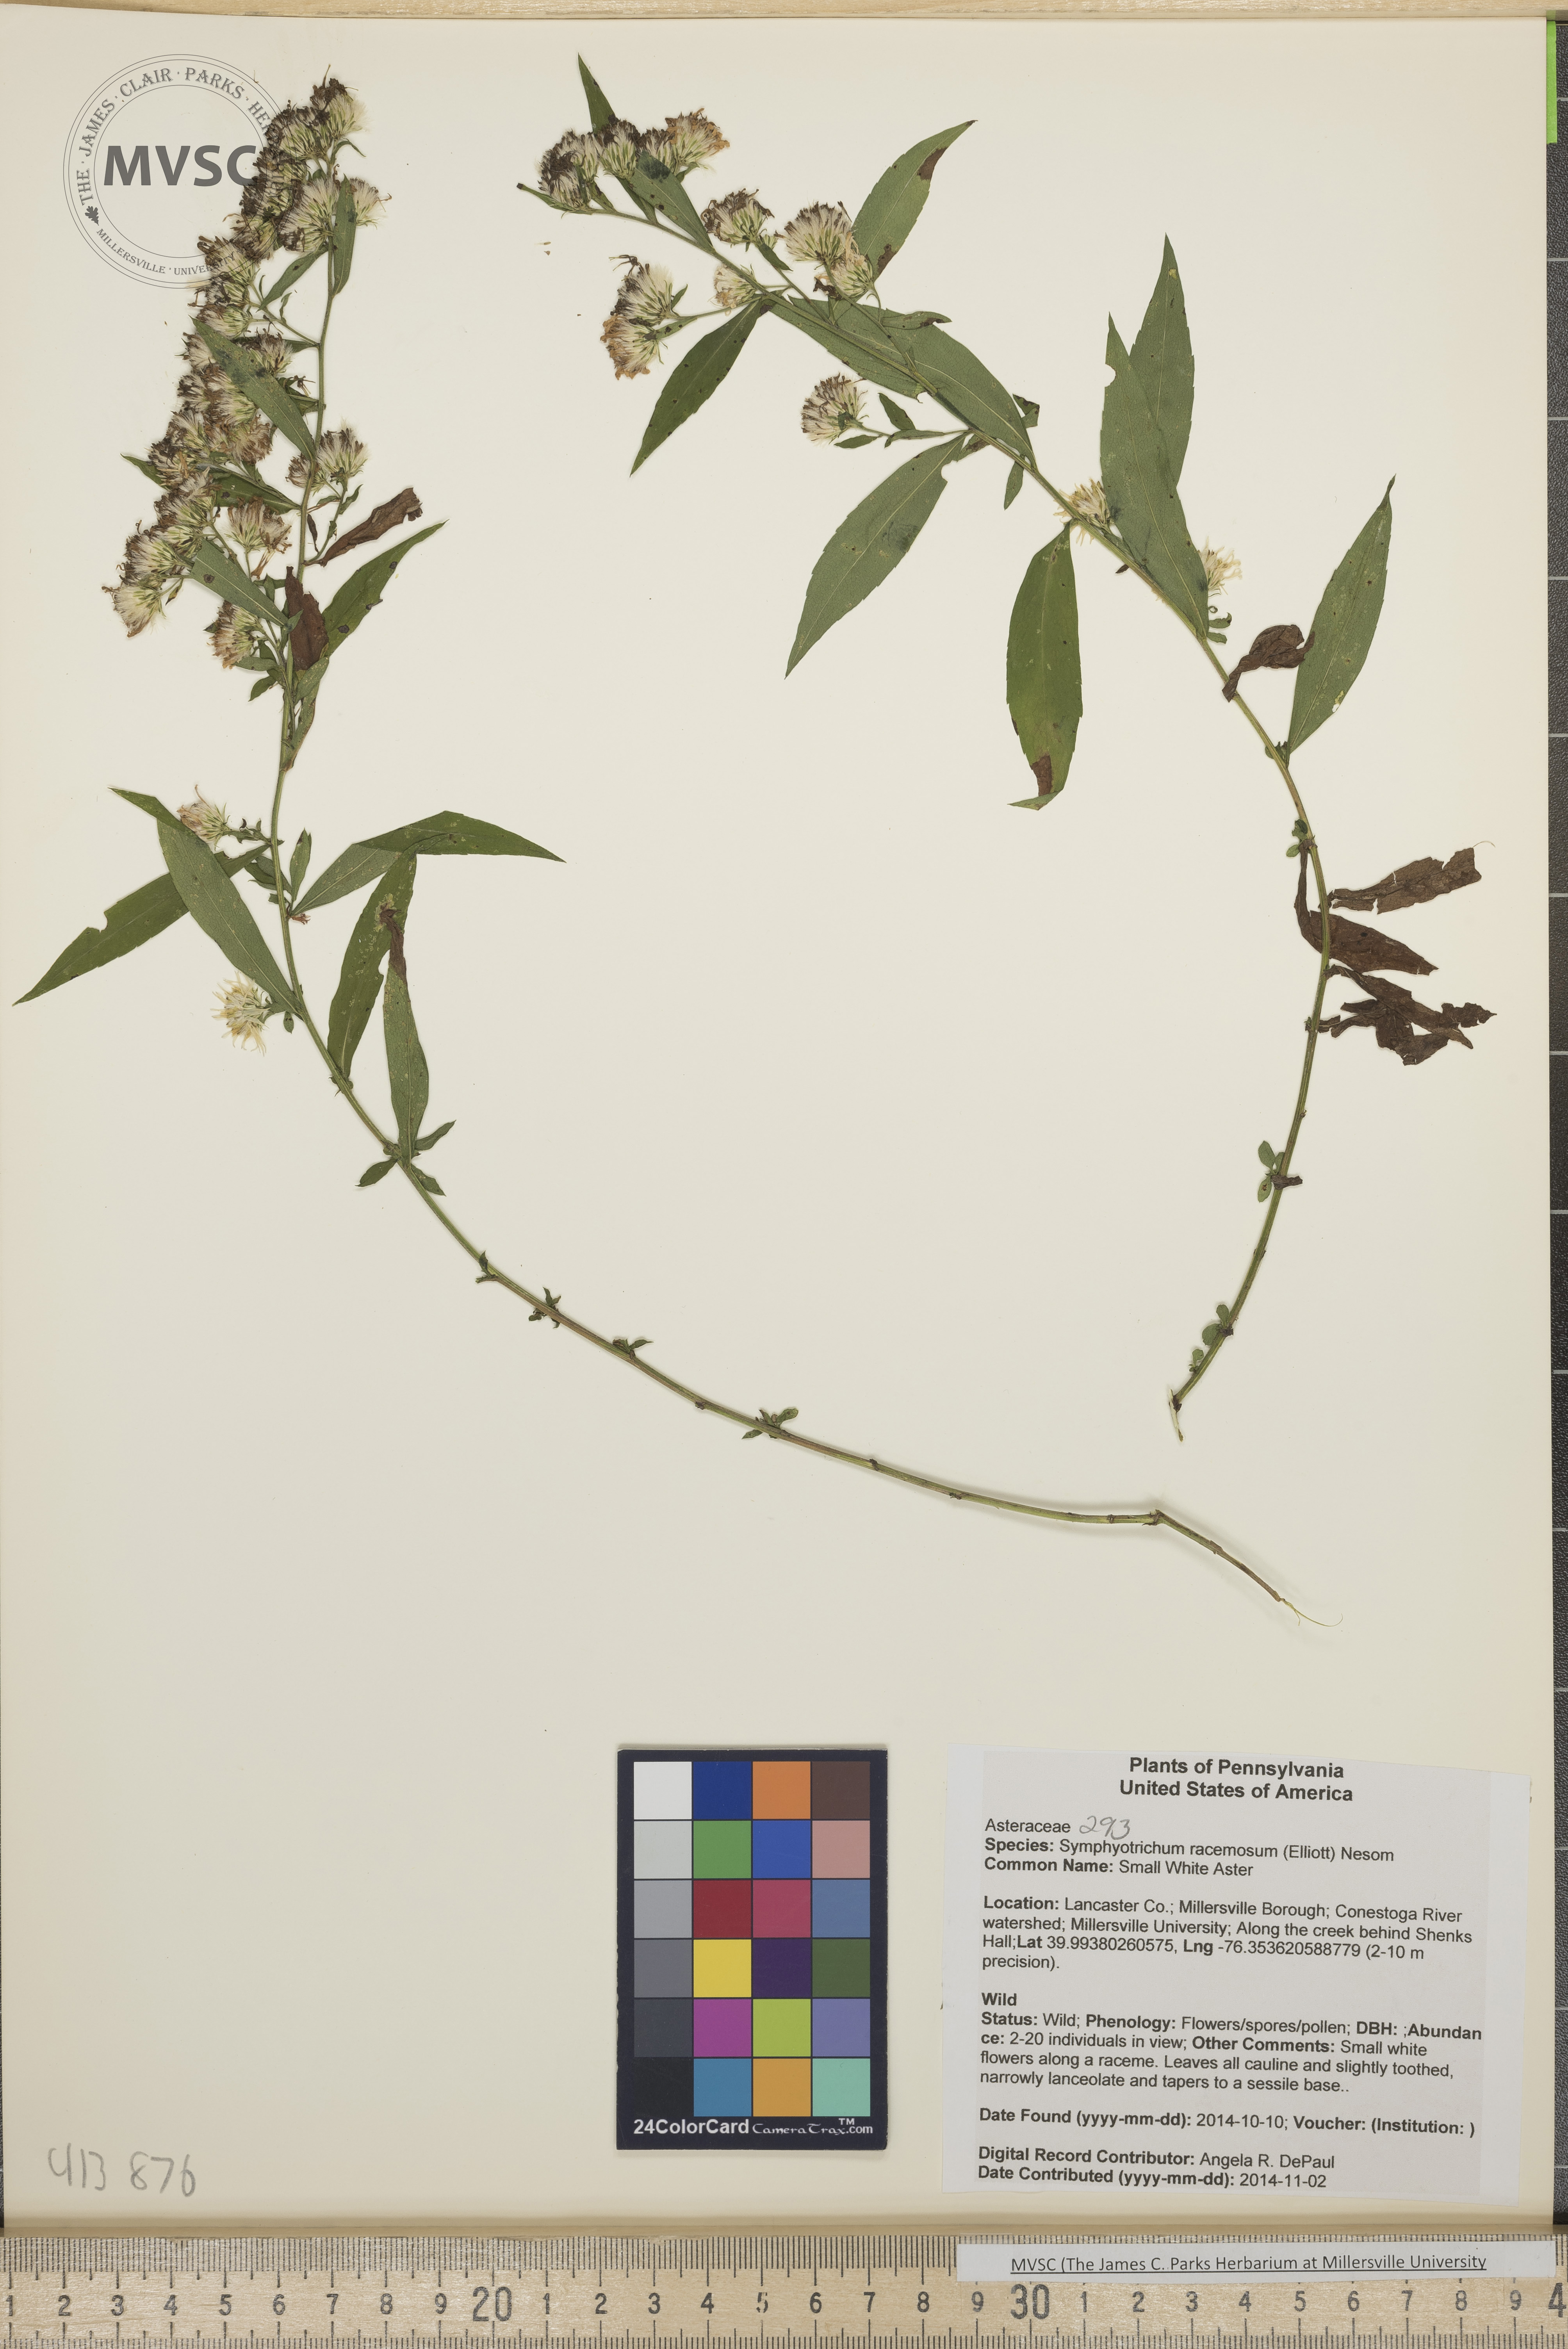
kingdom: Plantae
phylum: Tracheophyta
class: Magnoliopsida
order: Asterales
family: Asteraceae
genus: Symphyotrichum
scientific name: Symphyotrichum lanceolatum
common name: Small White Aster
